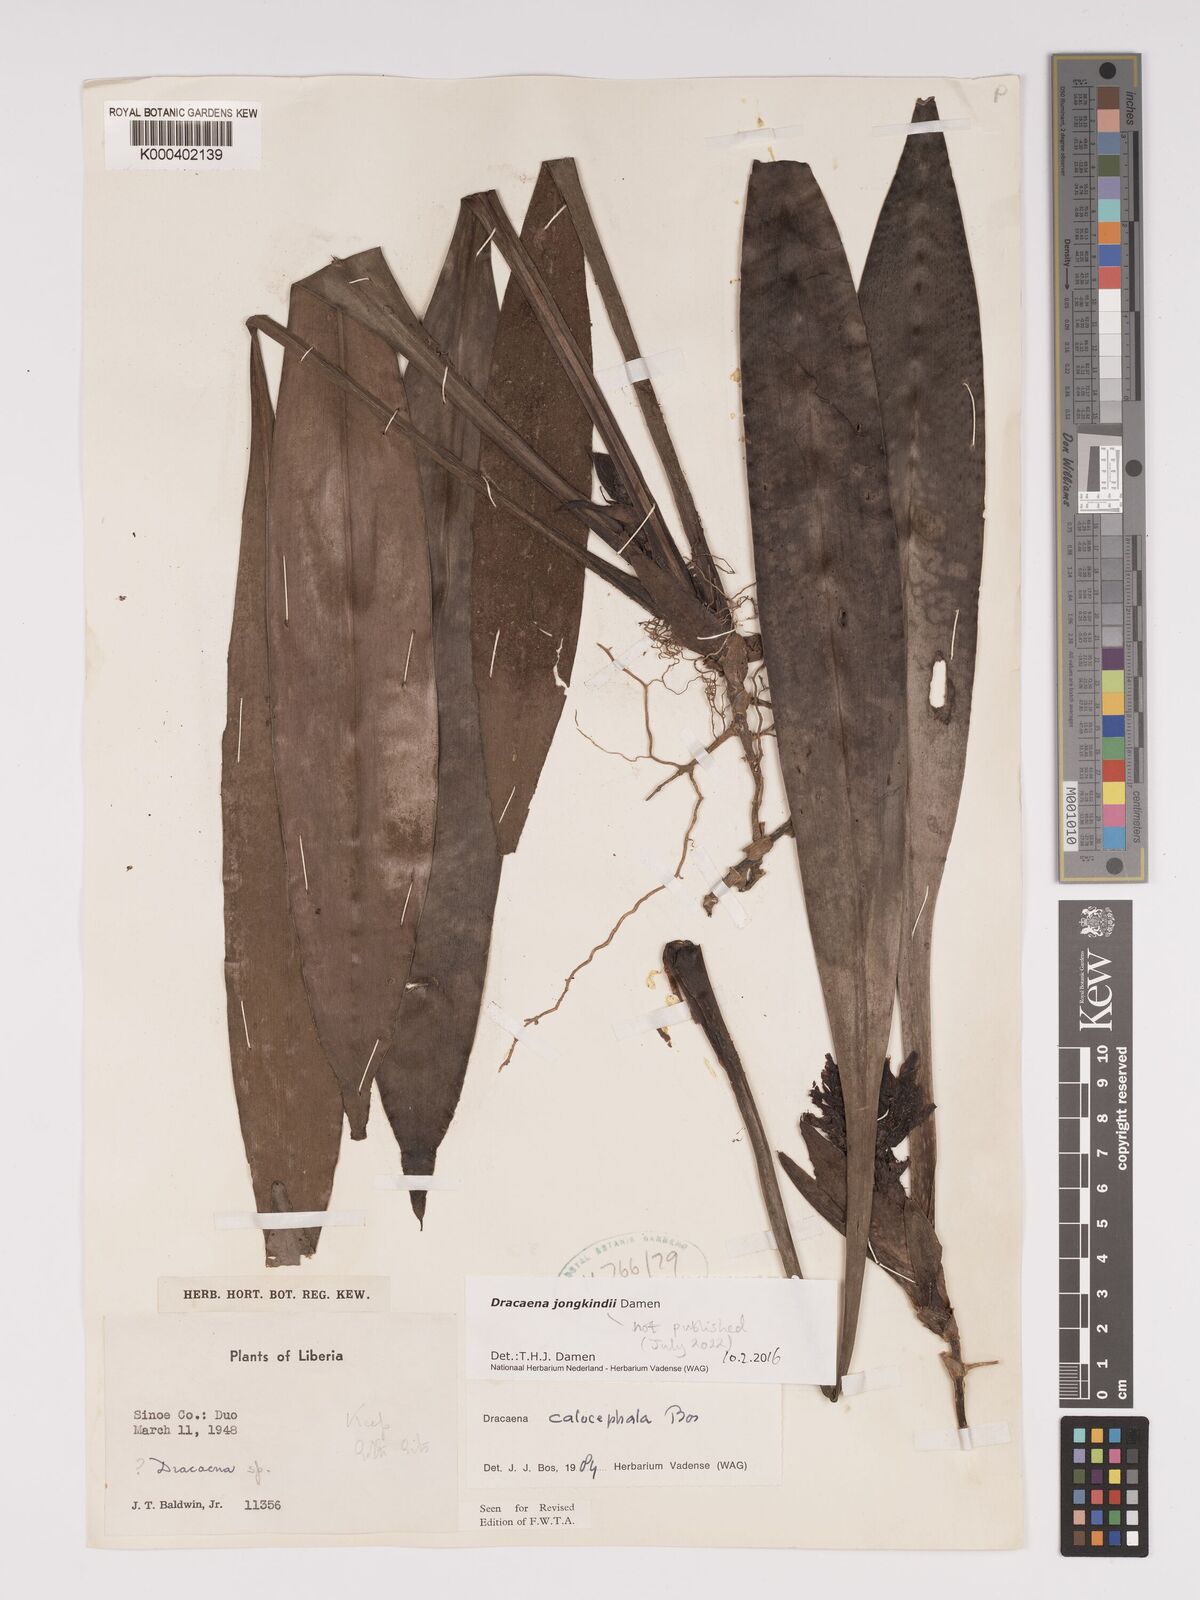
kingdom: Plantae
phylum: Tracheophyta
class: Liliopsida
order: Asparagales
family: Asparagaceae
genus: Dracaena
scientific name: Dracaena calocephala
